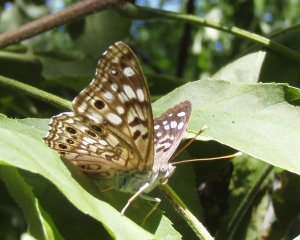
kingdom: Animalia
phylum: Arthropoda
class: Insecta
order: Lepidoptera
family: Nymphalidae
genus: Asterocampa
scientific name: Asterocampa celtis
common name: Hackberry Emperor
